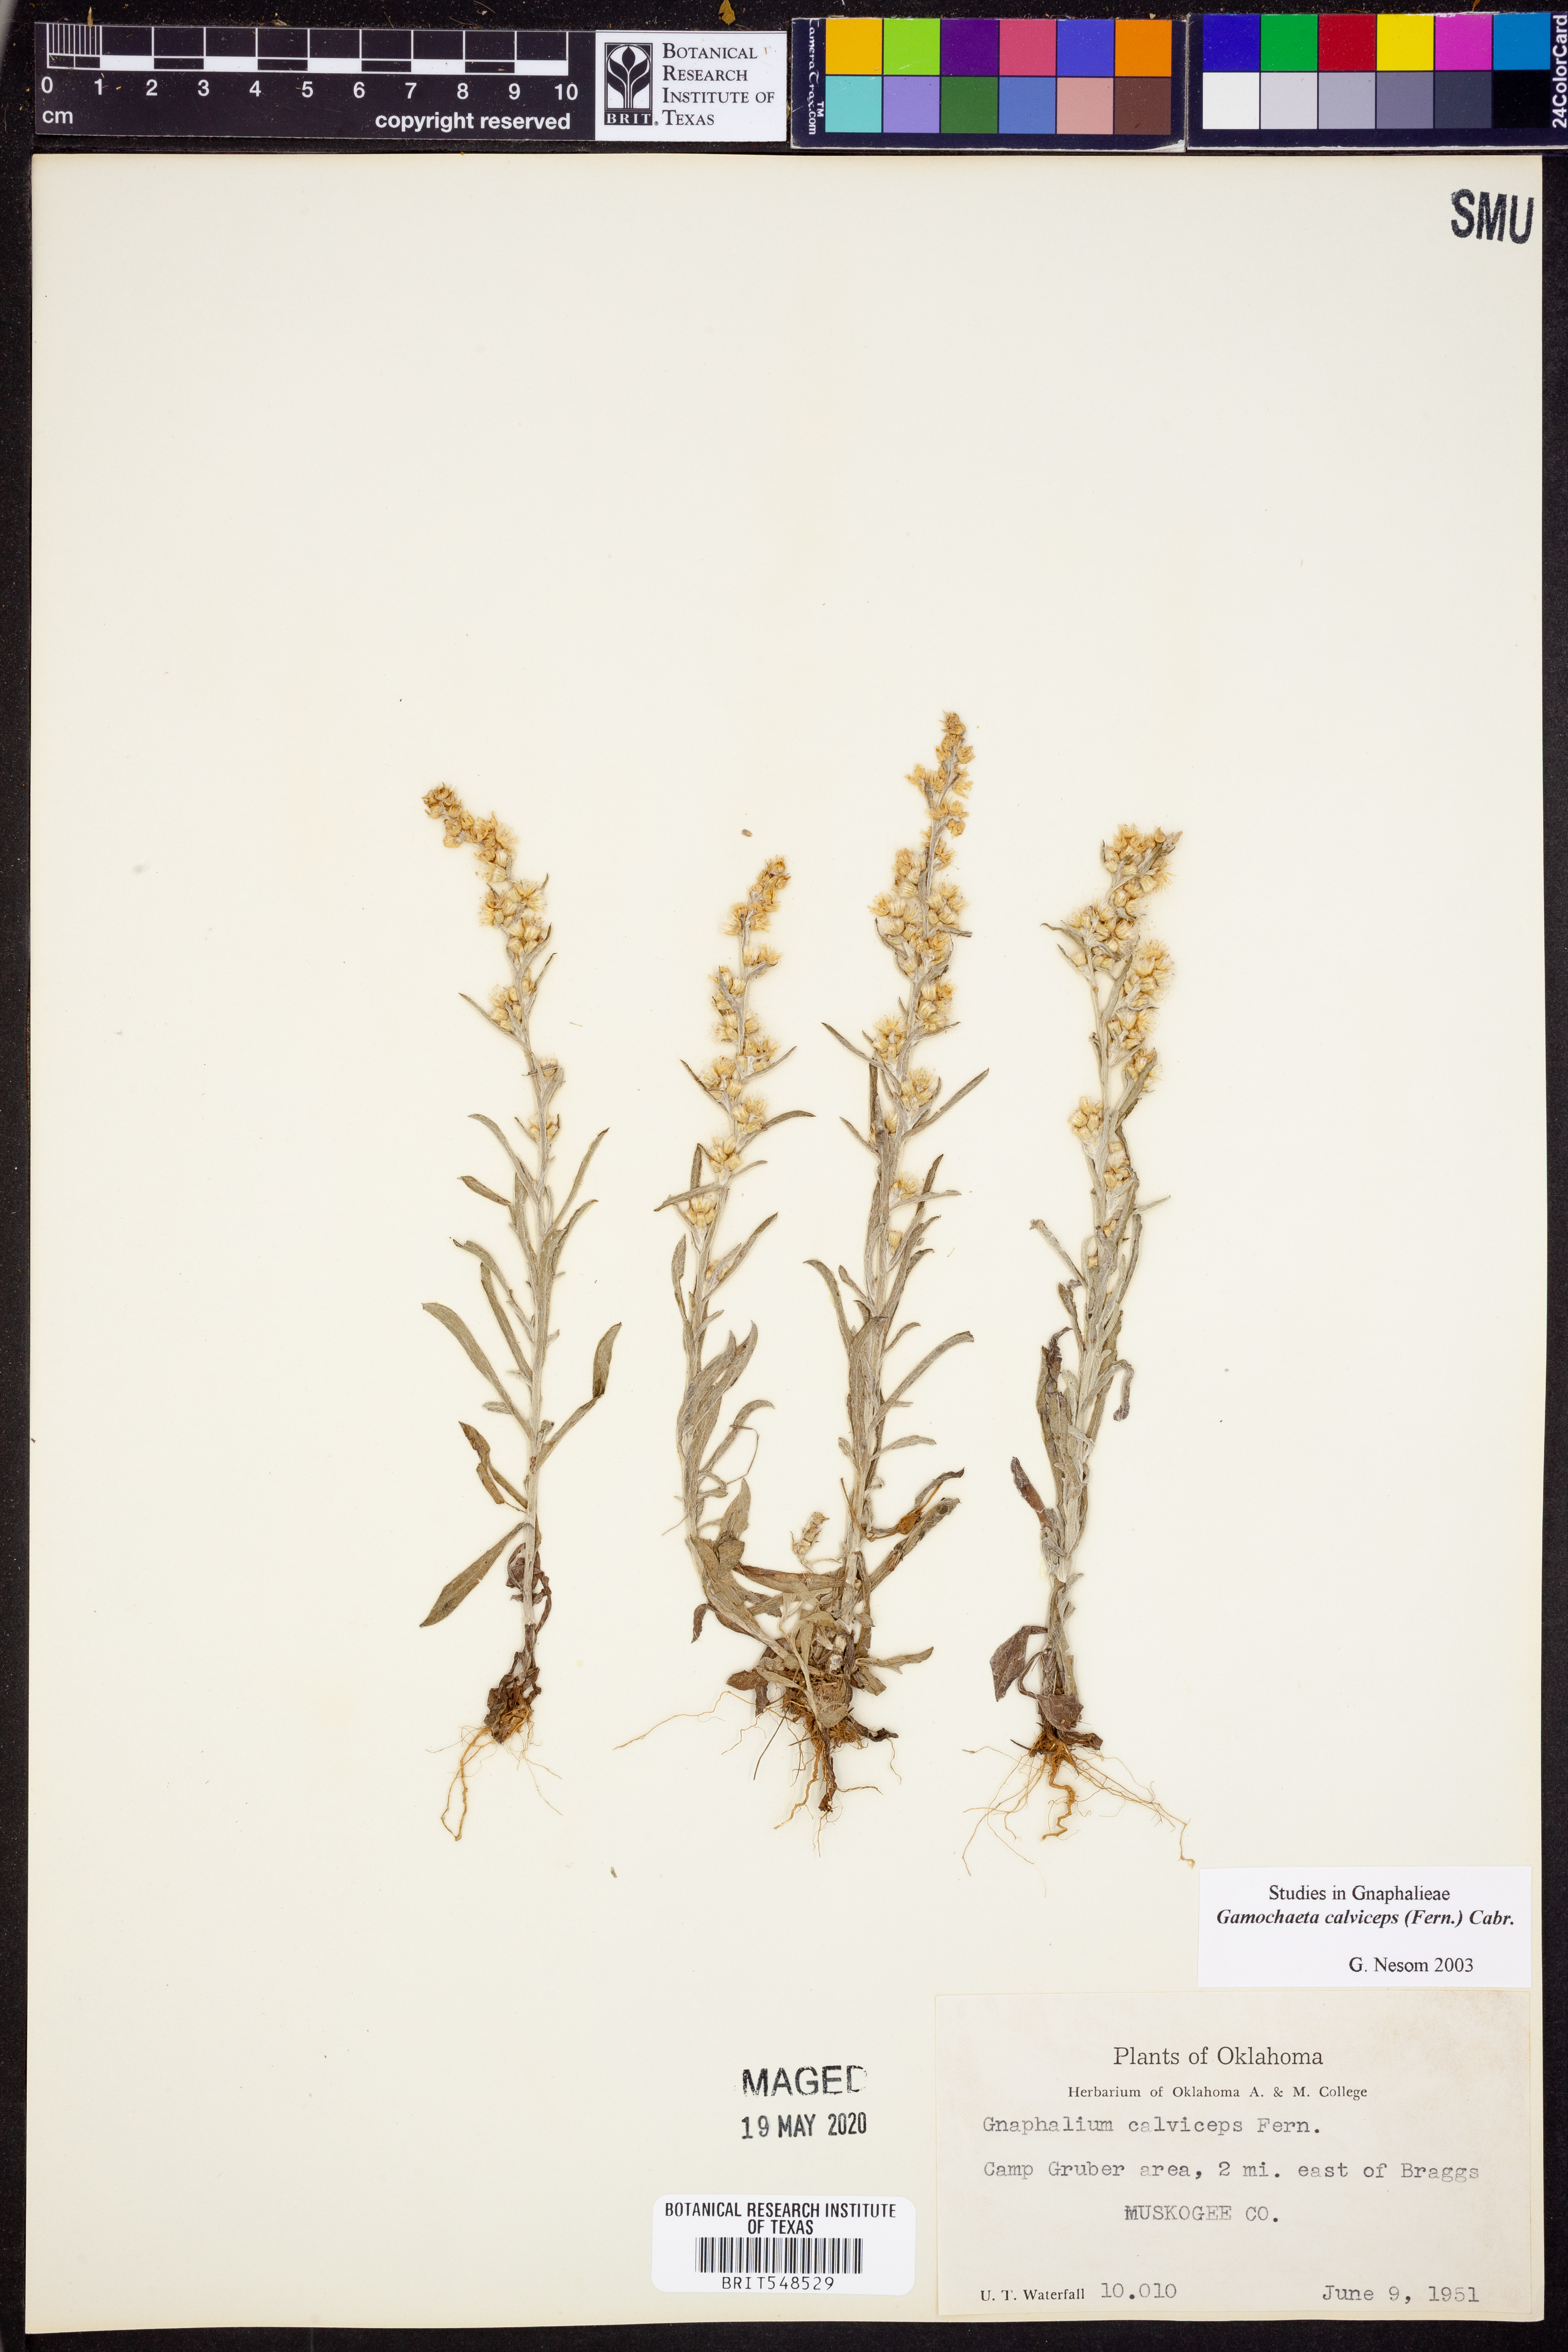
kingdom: Plantae
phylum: Tracheophyta
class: Magnoliopsida
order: Asterales
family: Asteraceae
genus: Gamochaeta
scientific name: Gamochaeta calviceps
